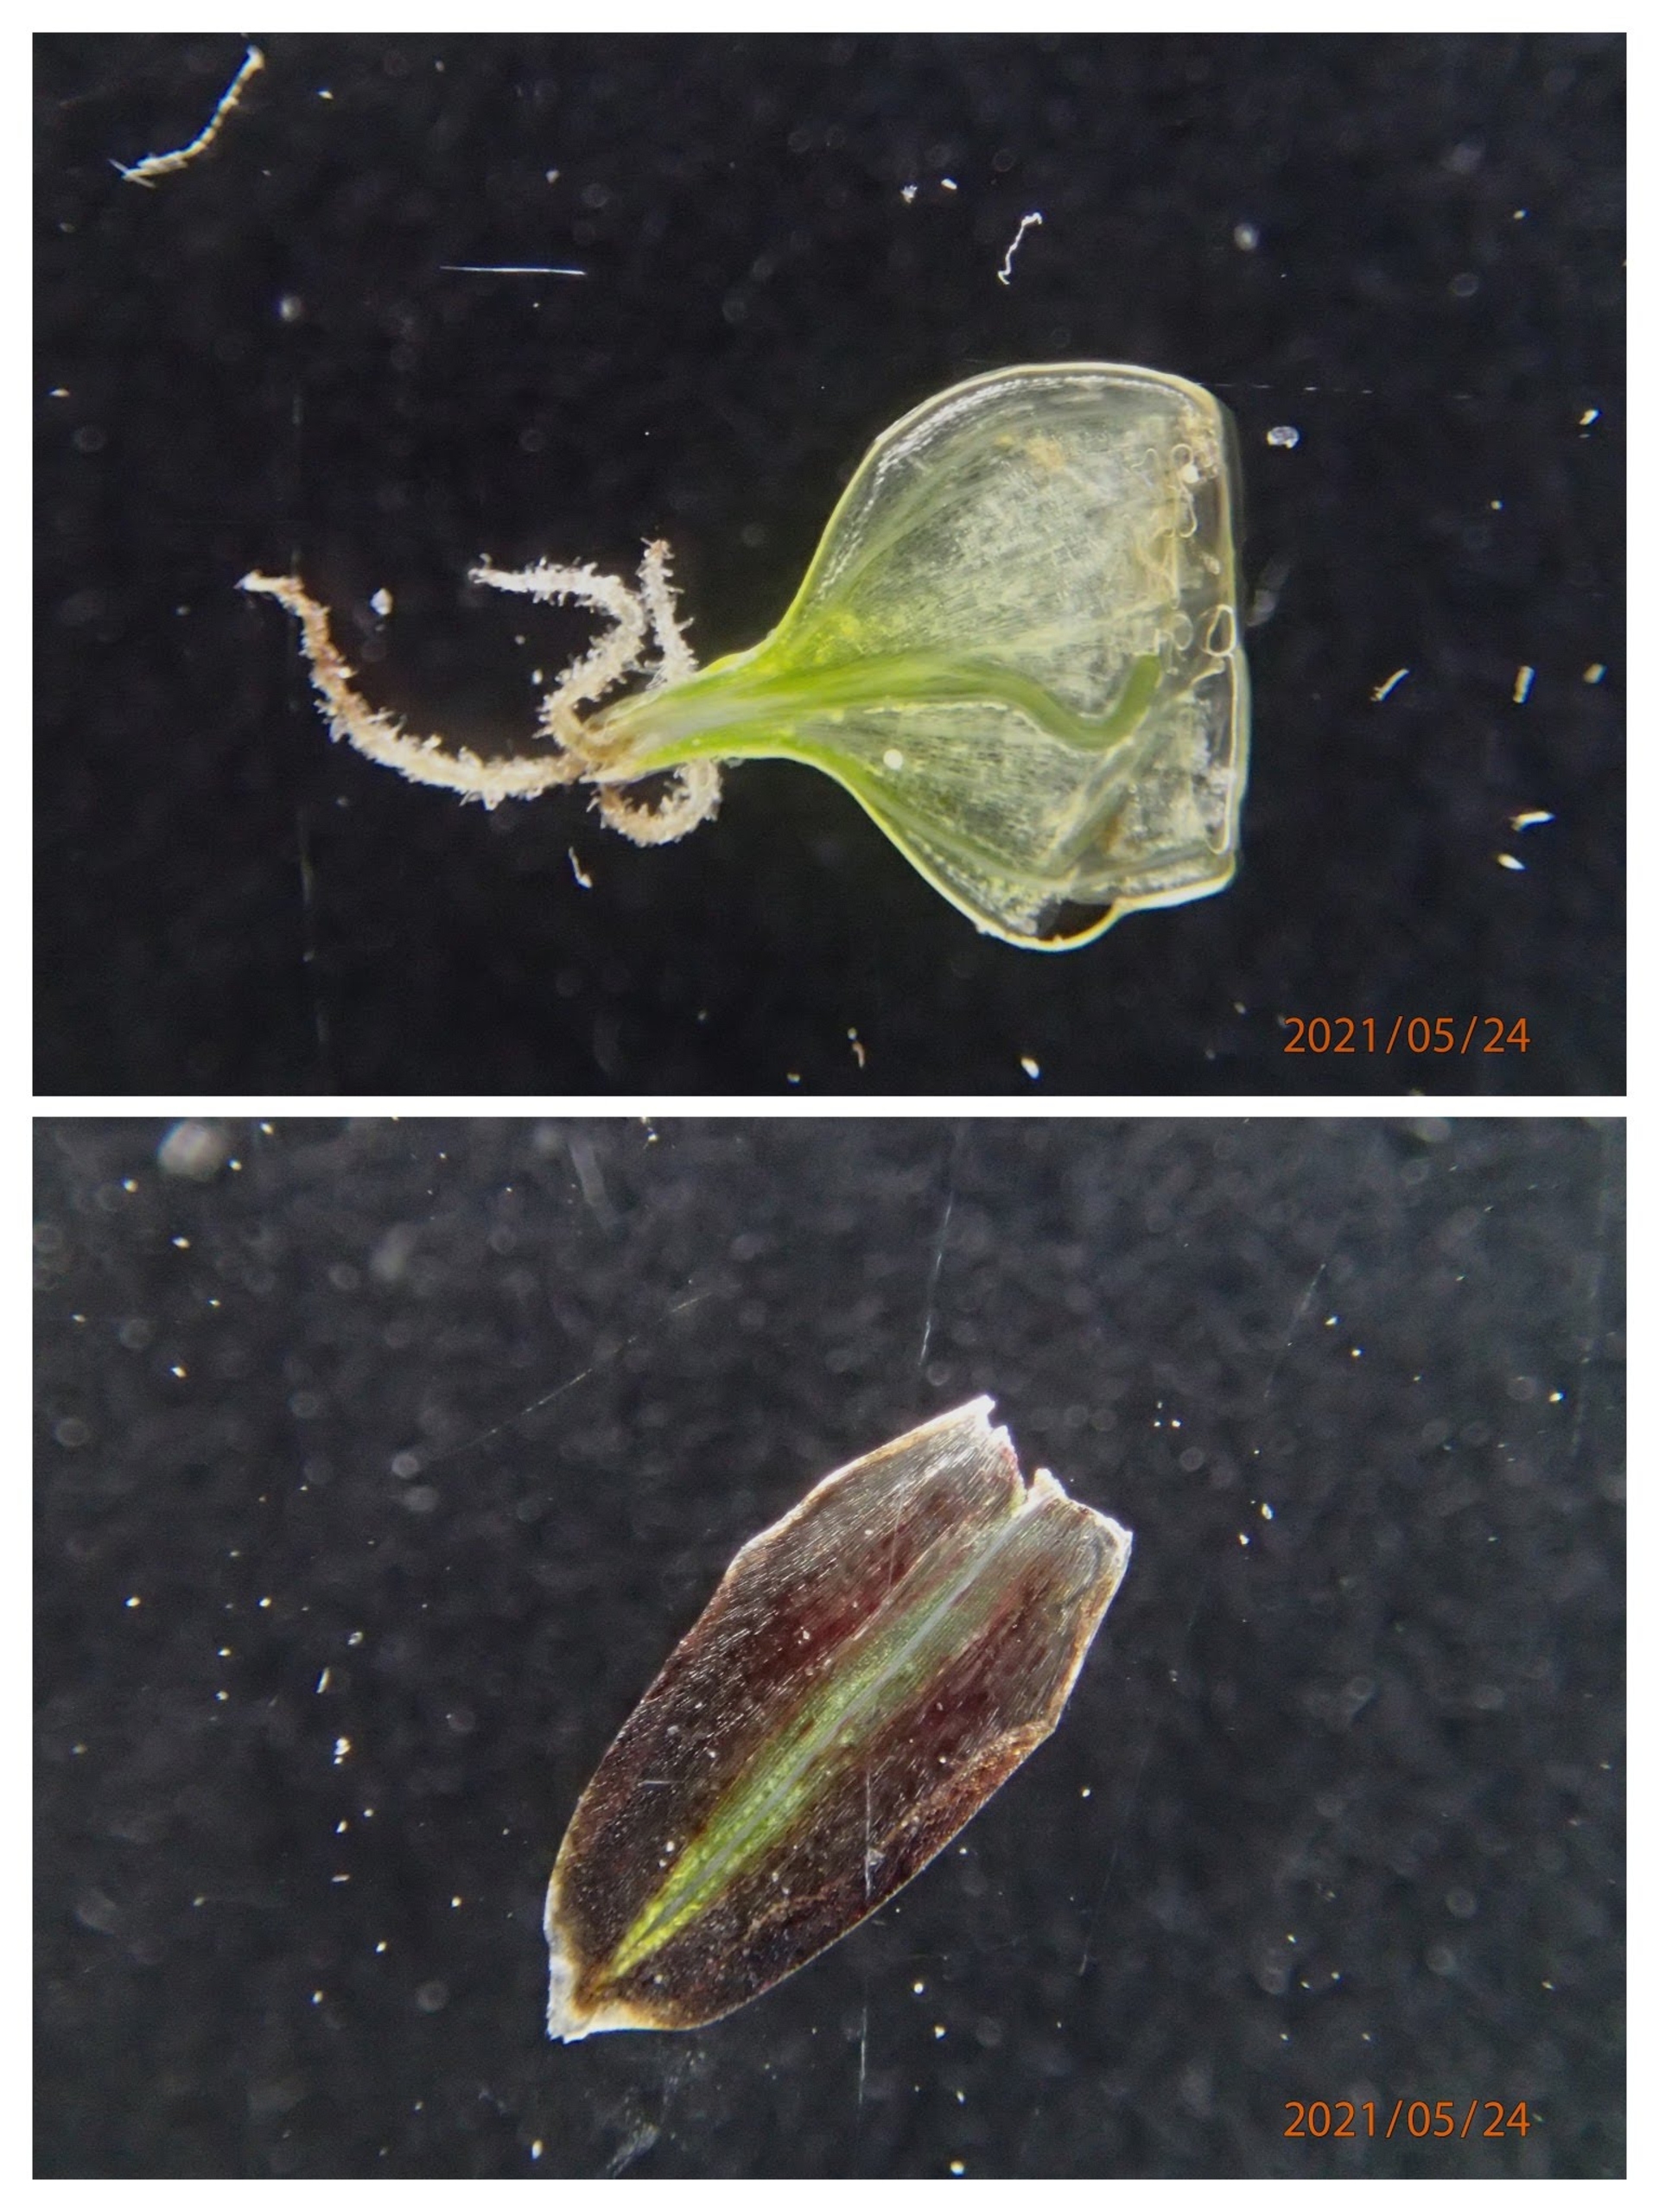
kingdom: Plantae
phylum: Tracheophyta
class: Liliopsida
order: Poales
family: Cyperaceae
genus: Carex
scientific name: Carex rostrata
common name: Næb-star
